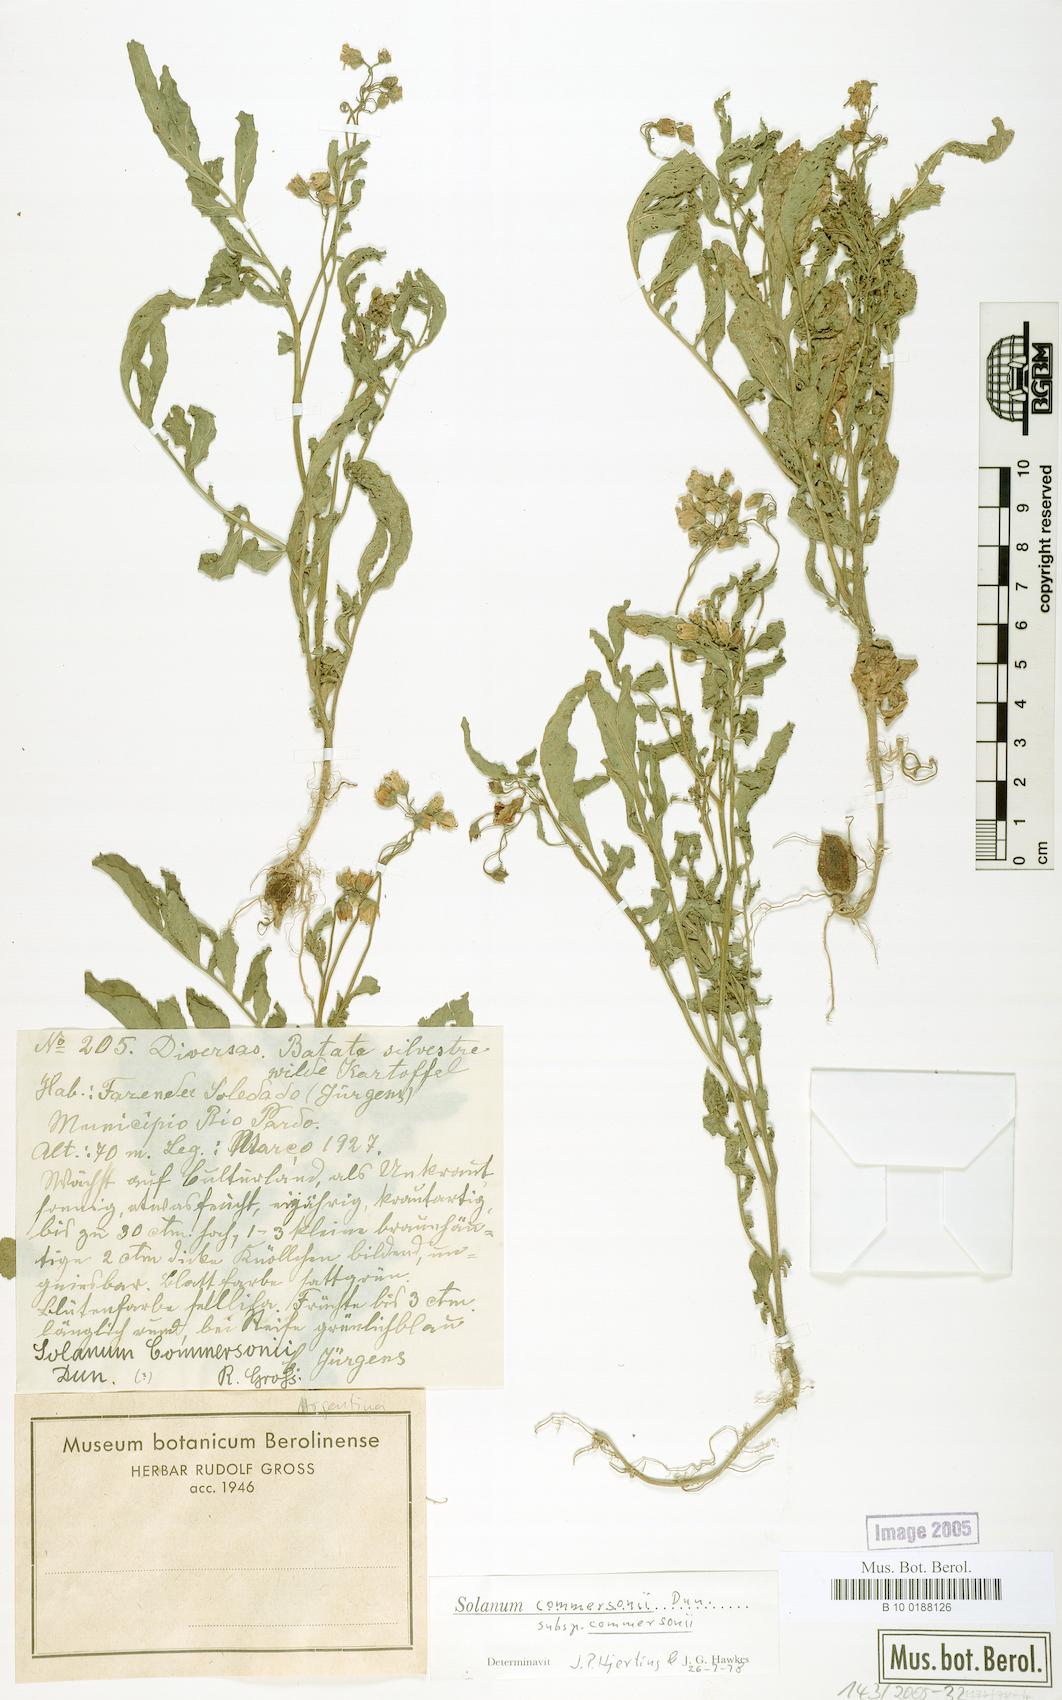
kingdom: Plantae
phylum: Tracheophyta
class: Magnoliopsida
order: Solanales
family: Solanaceae
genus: Solanum
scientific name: Solanum commersonii
